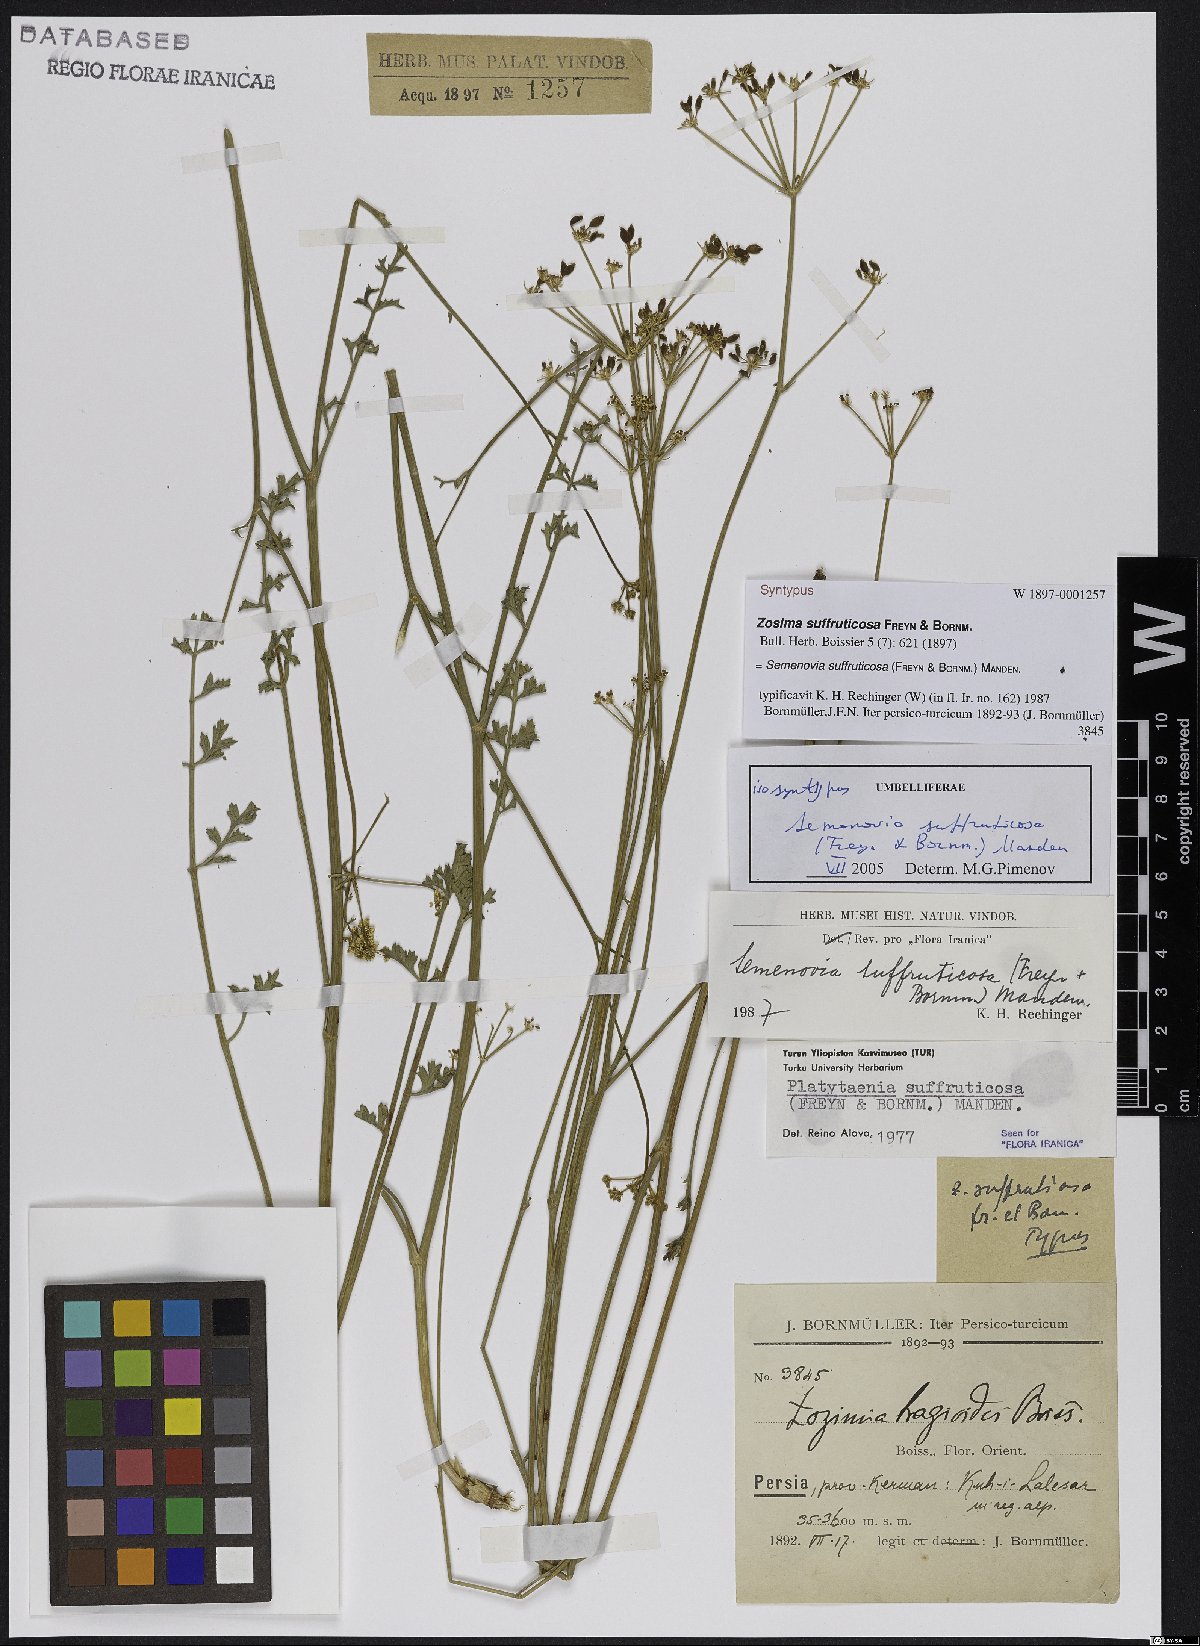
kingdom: Plantae
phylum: Tracheophyta
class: Magnoliopsida
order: Apiales
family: Apiaceae
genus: Semenovia
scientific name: Semenovia suffruticosa
